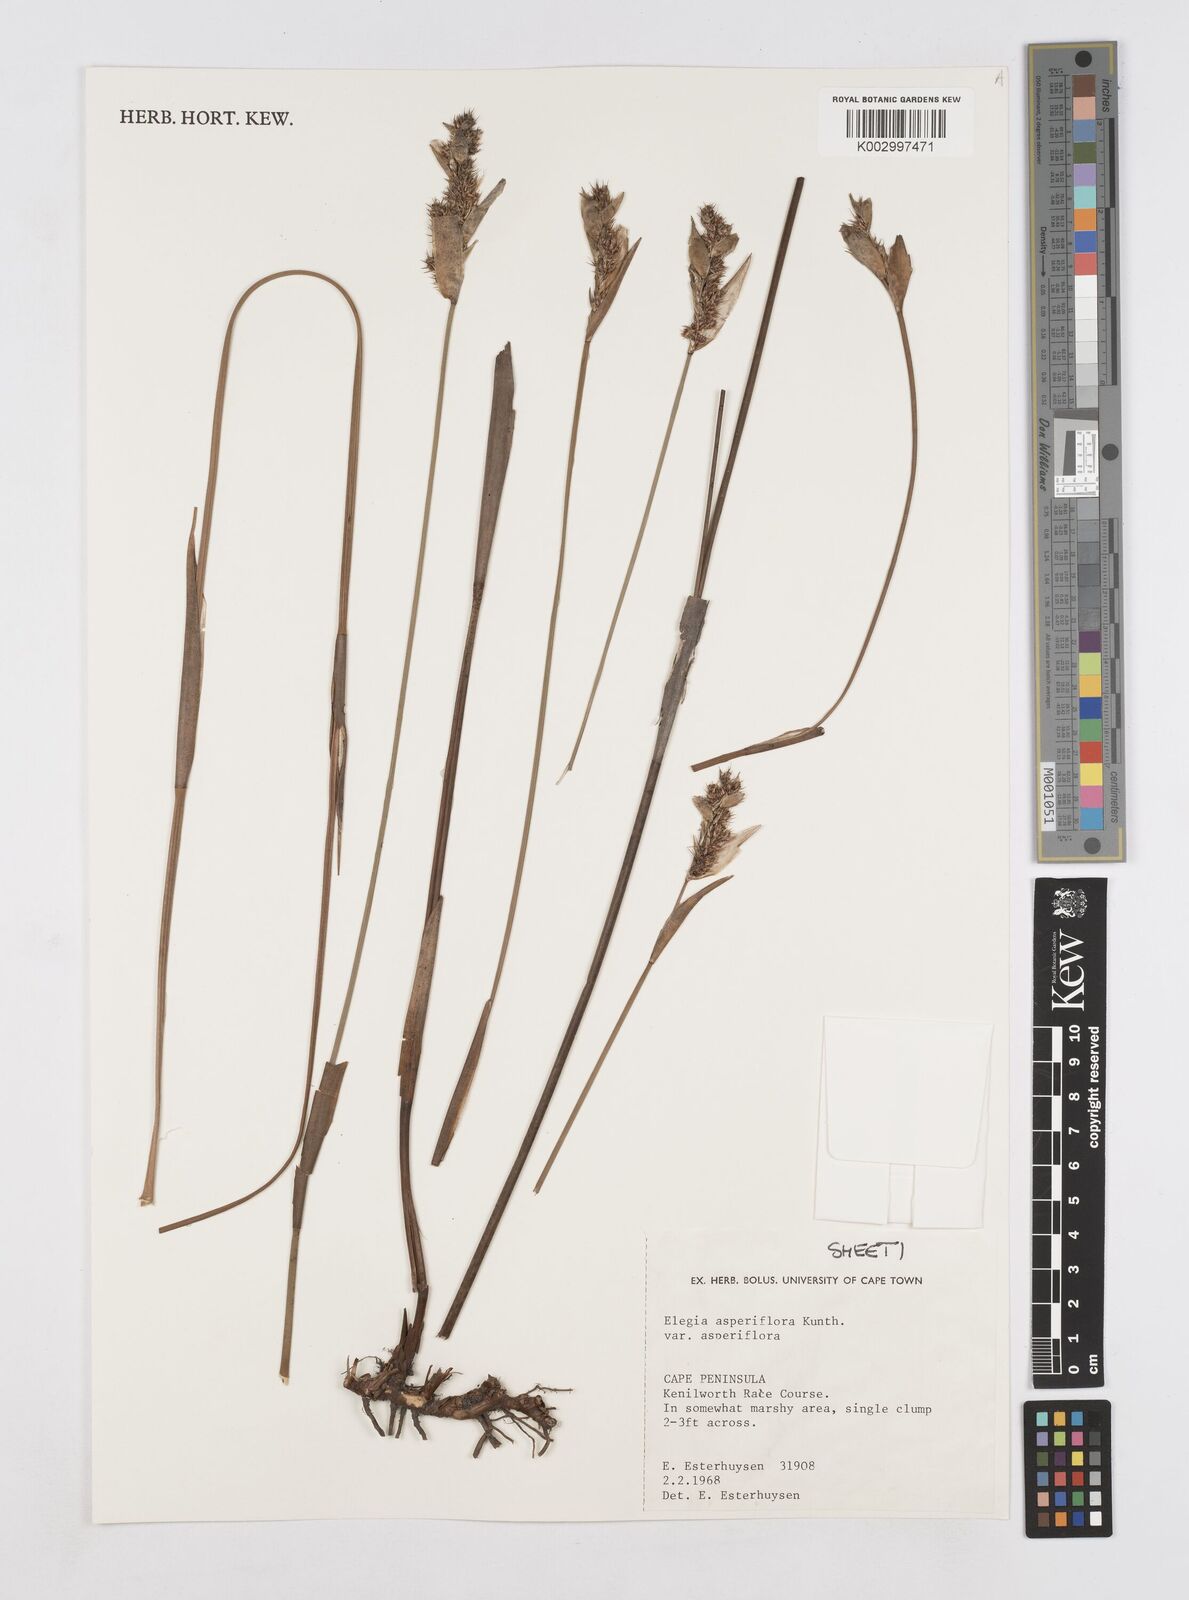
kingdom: Plantae
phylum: Tracheophyta
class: Liliopsida
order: Poales
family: Restionaceae
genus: Elegia
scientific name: Elegia asperiflora
